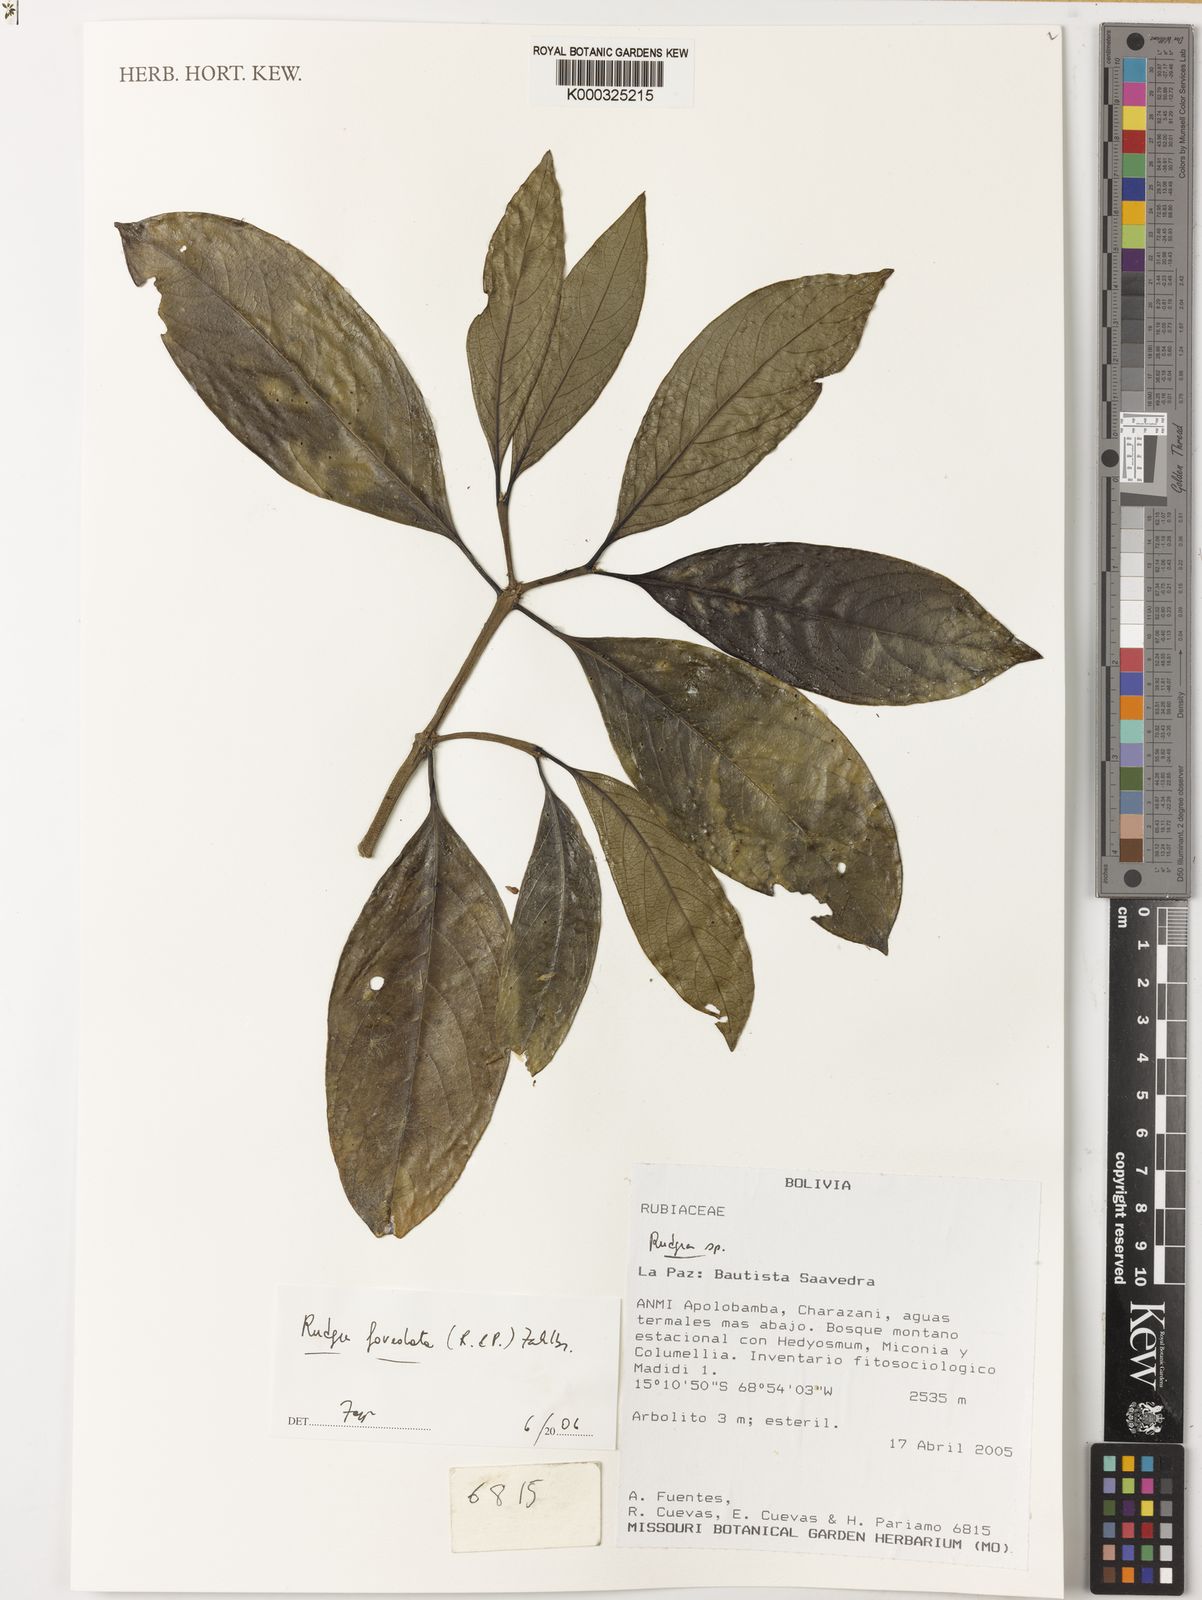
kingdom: Plantae
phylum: Tracheophyta
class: Magnoliopsida
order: Gentianales
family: Rubiaceae
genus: Rudgea
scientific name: Rudgea foveolata
